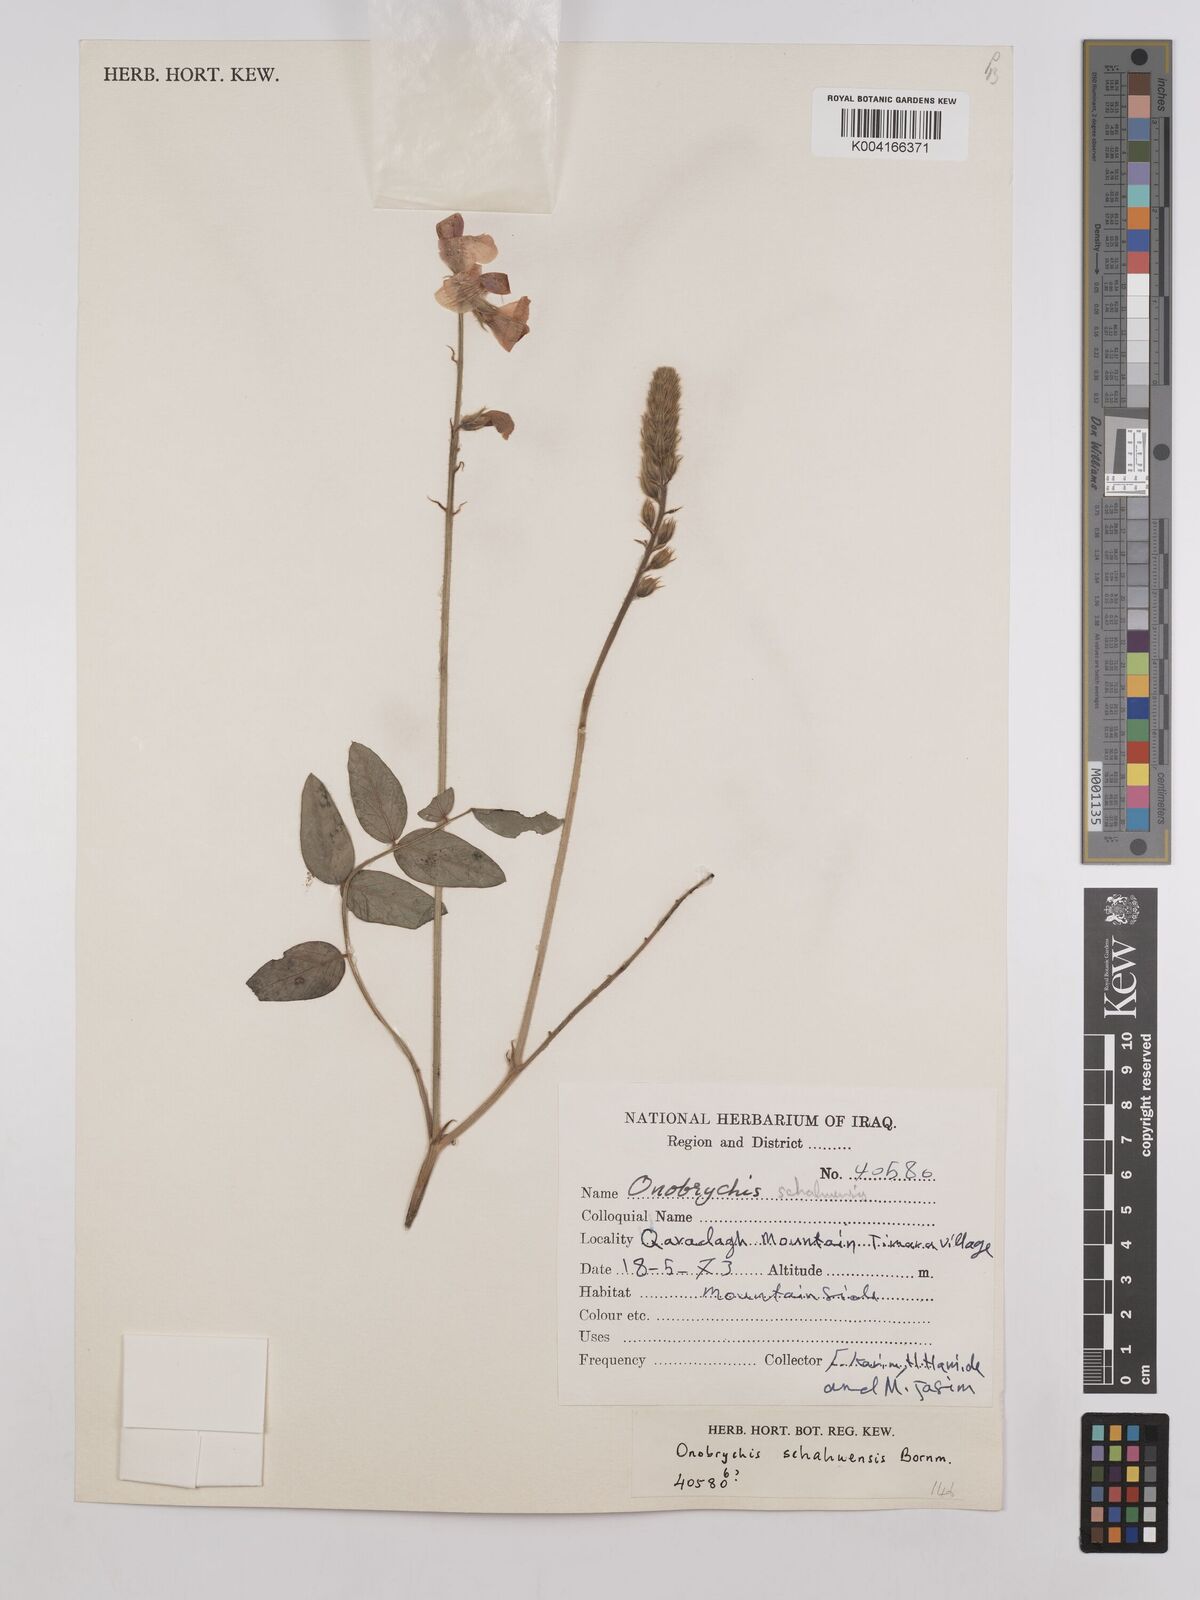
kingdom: Plantae
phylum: Tracheophyta
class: Magnoliopsida
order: Fabales
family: Fabaceae
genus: Onobrychis
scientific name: Onobrychis schahuensis
